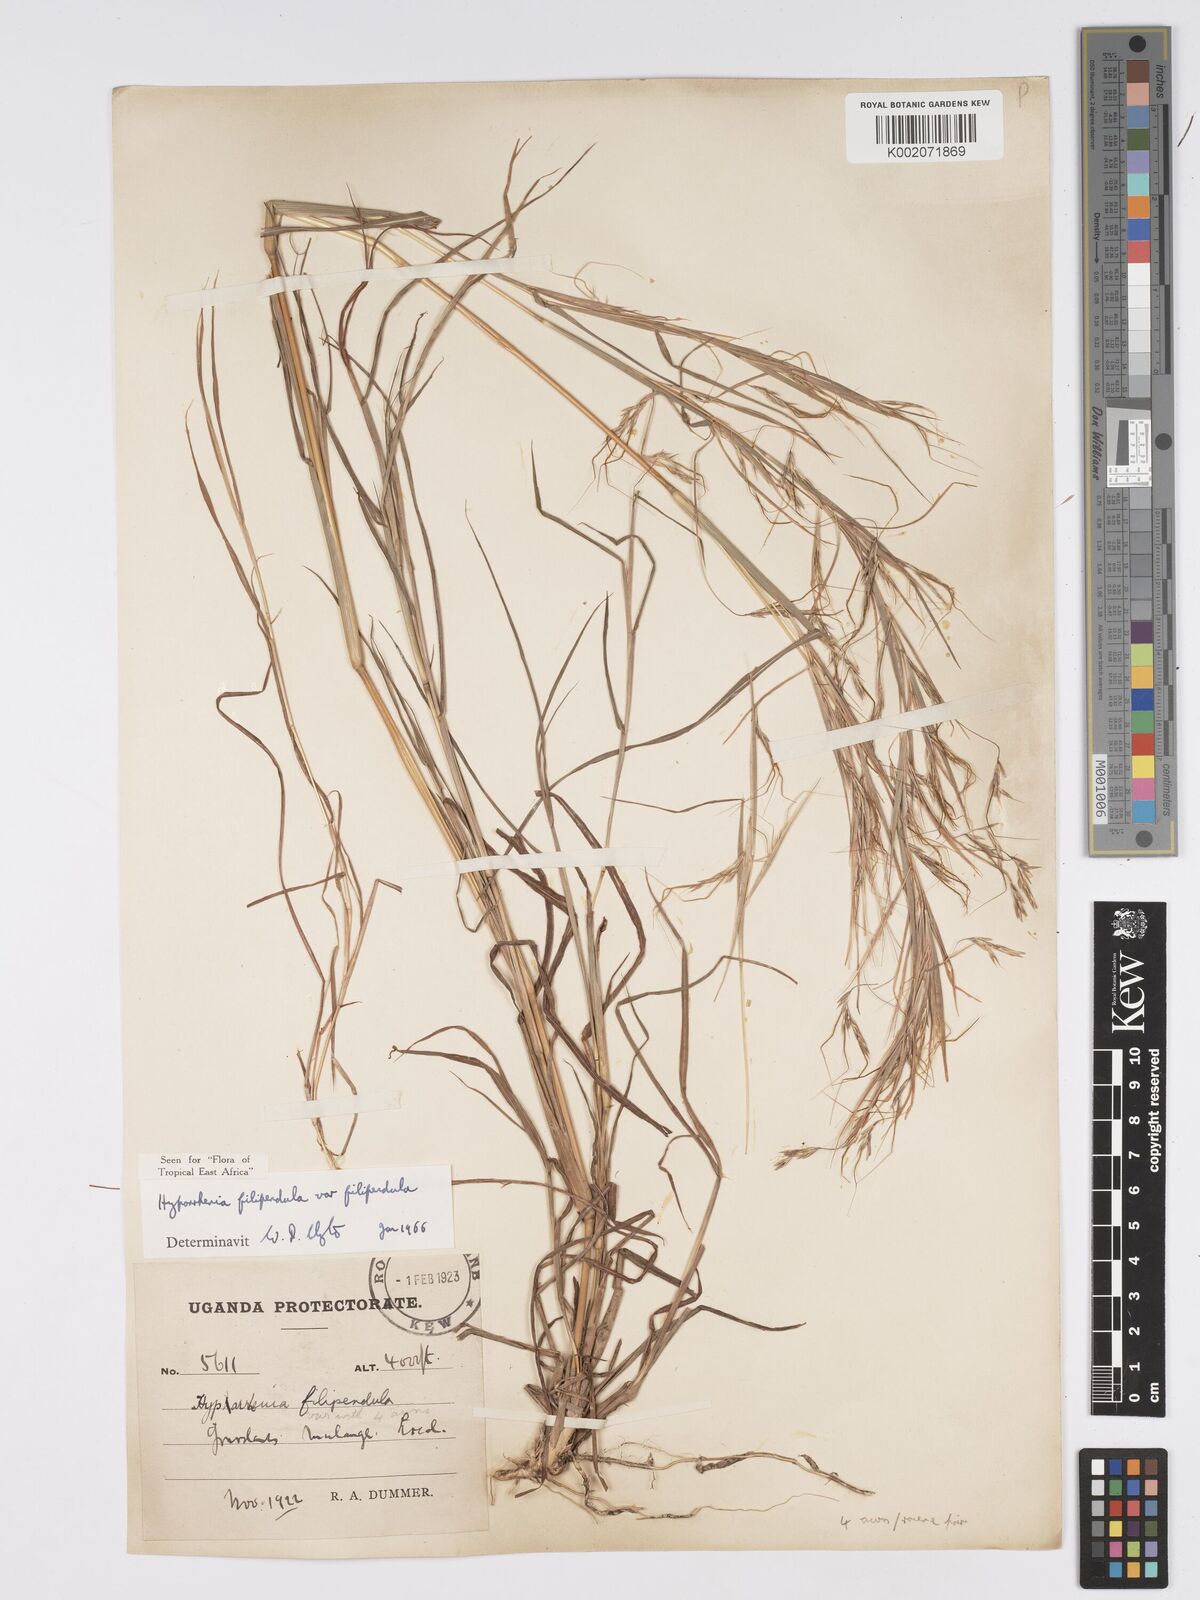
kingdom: Plantae
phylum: Tracheophyta
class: Liliopsida
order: Poales
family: Poaceae
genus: Hyparrhenia
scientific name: Hyparrhenia filipendula
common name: Tambookie grass
